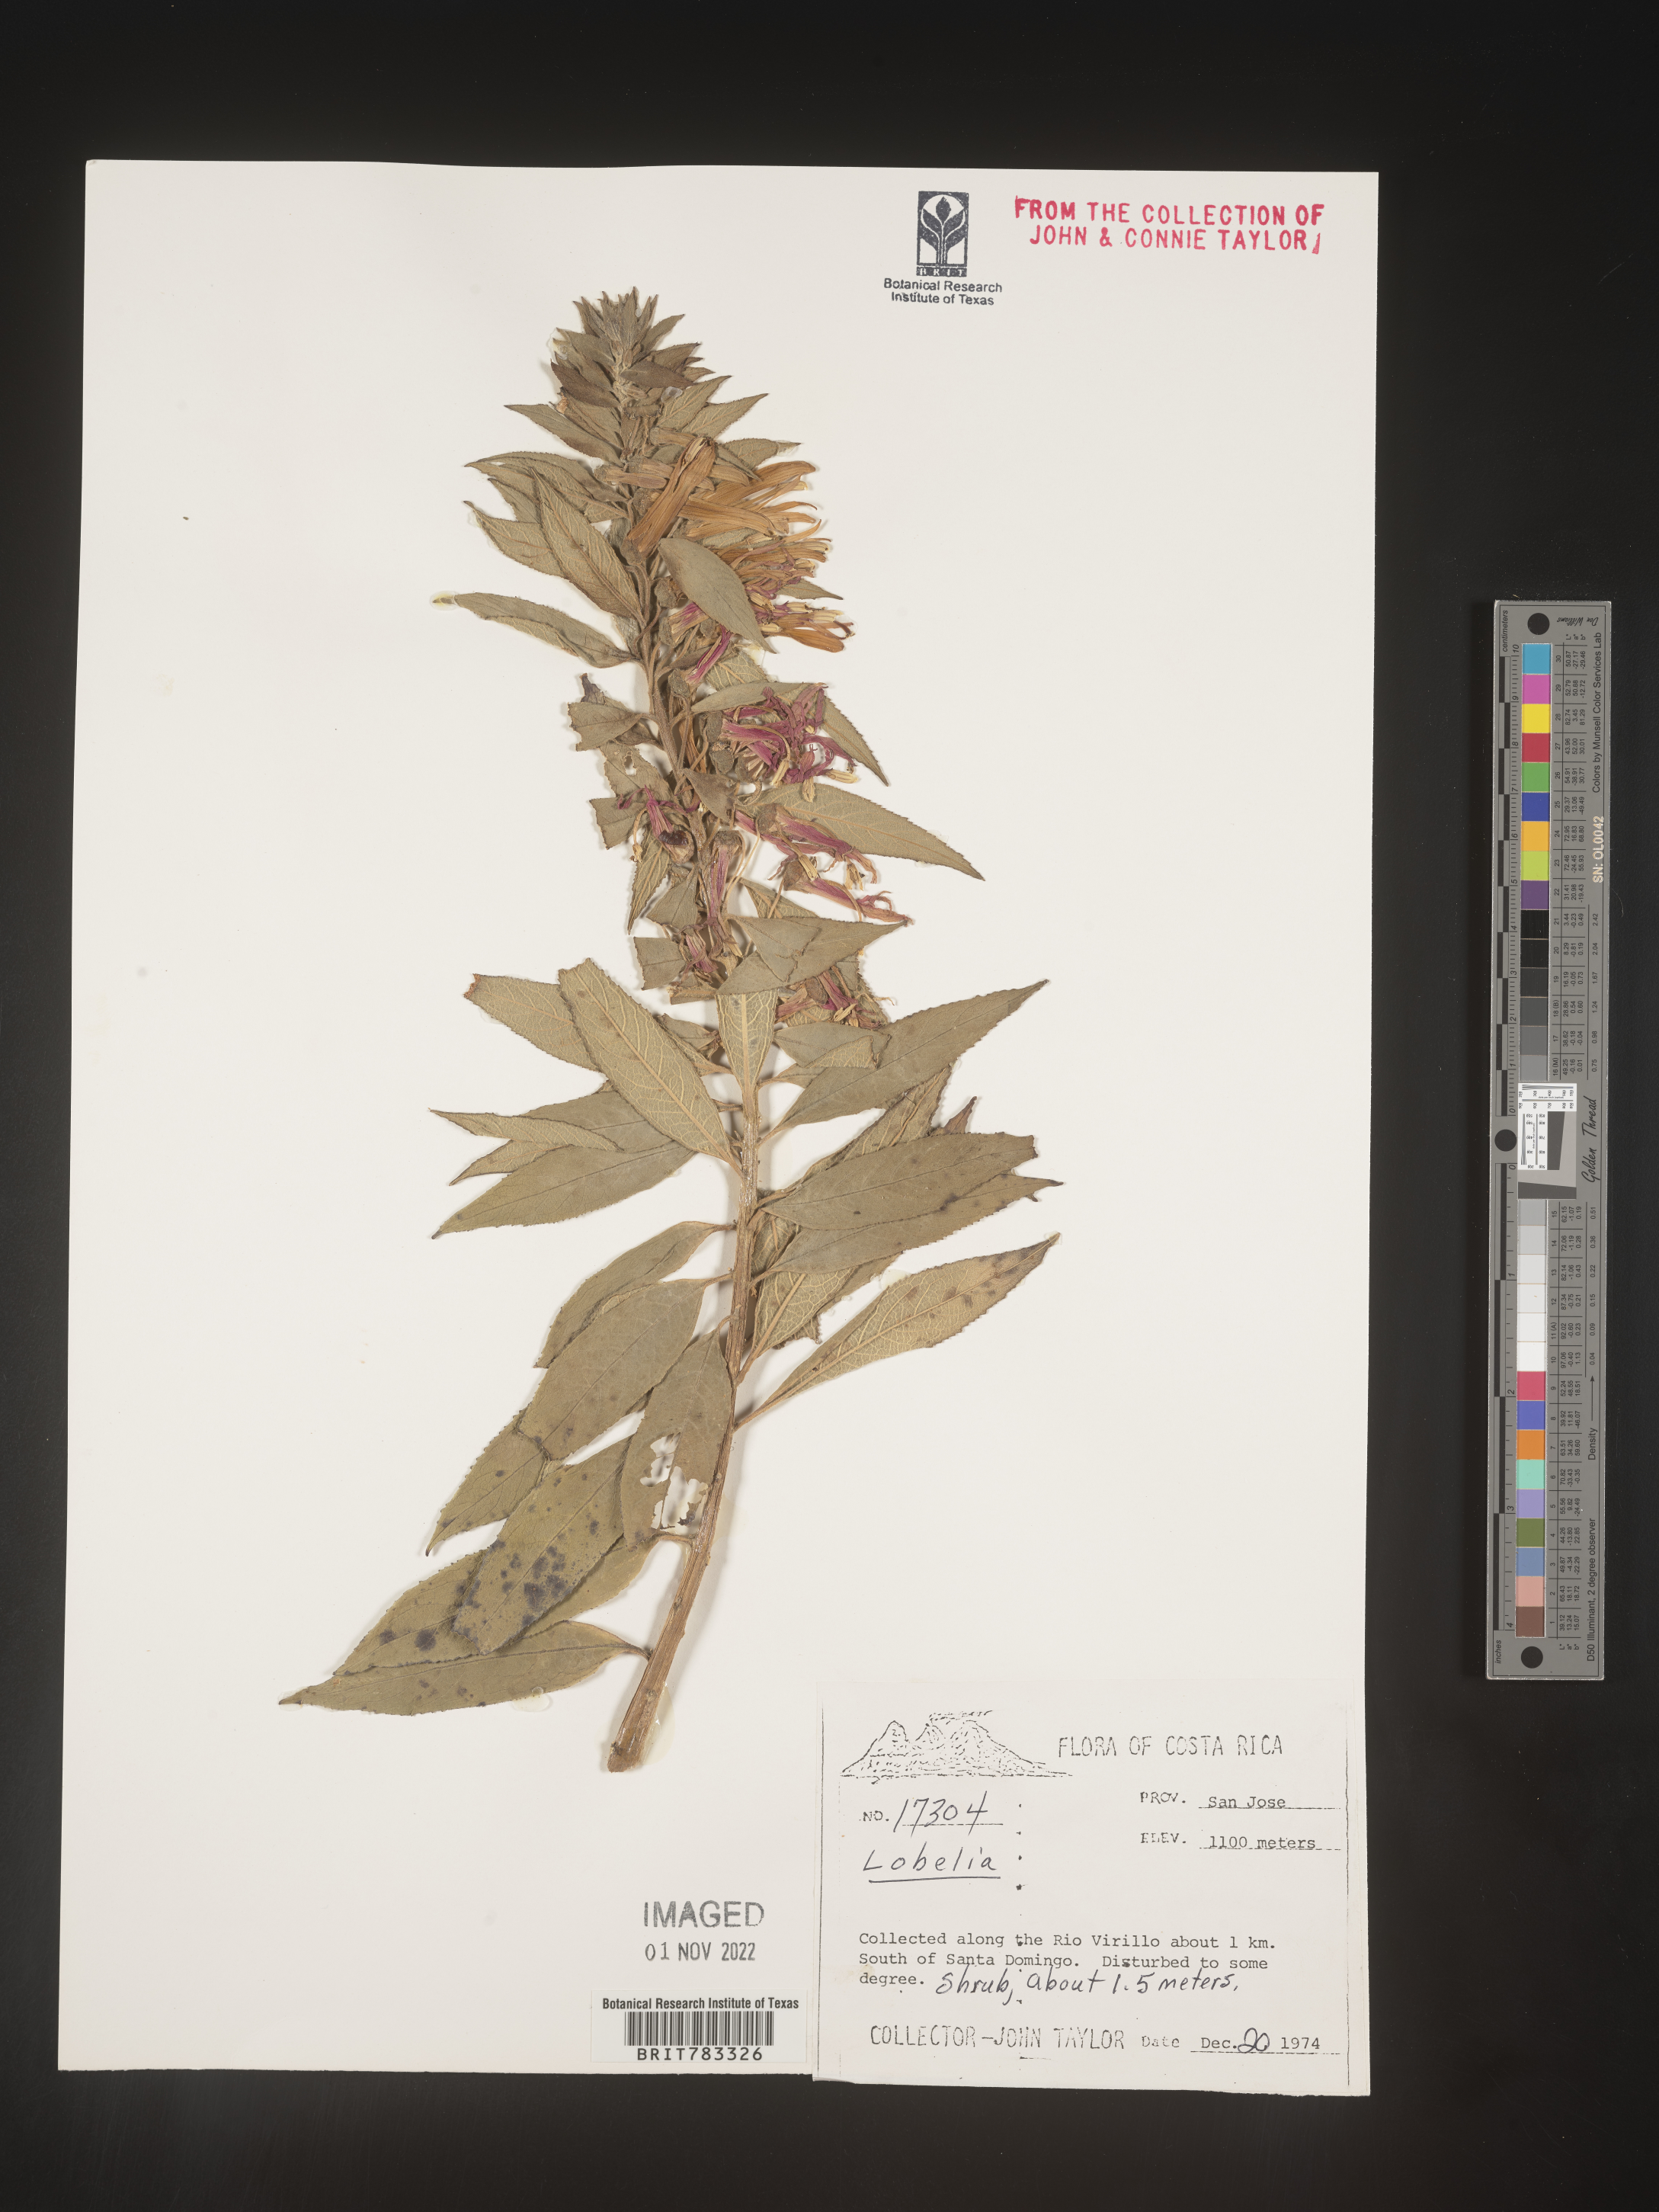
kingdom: Plantae
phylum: Tracheophyta
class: Magnoliopsida
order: Asterales
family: Campanulaceae
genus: Lobelia
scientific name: Lobelia
